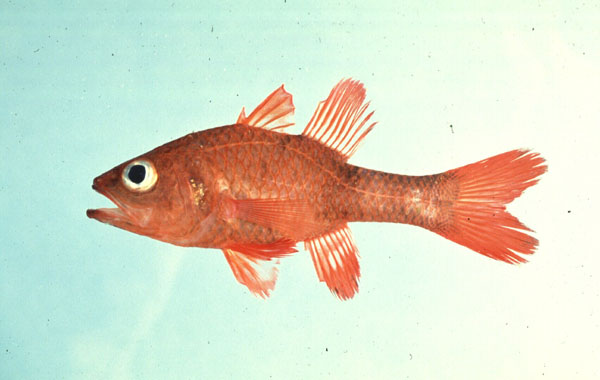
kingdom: Animalia
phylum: Chordata
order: Perciformes
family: Apogonidae
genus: Apogon
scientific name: Apogon crassiceps
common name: Little red cardinalfish
